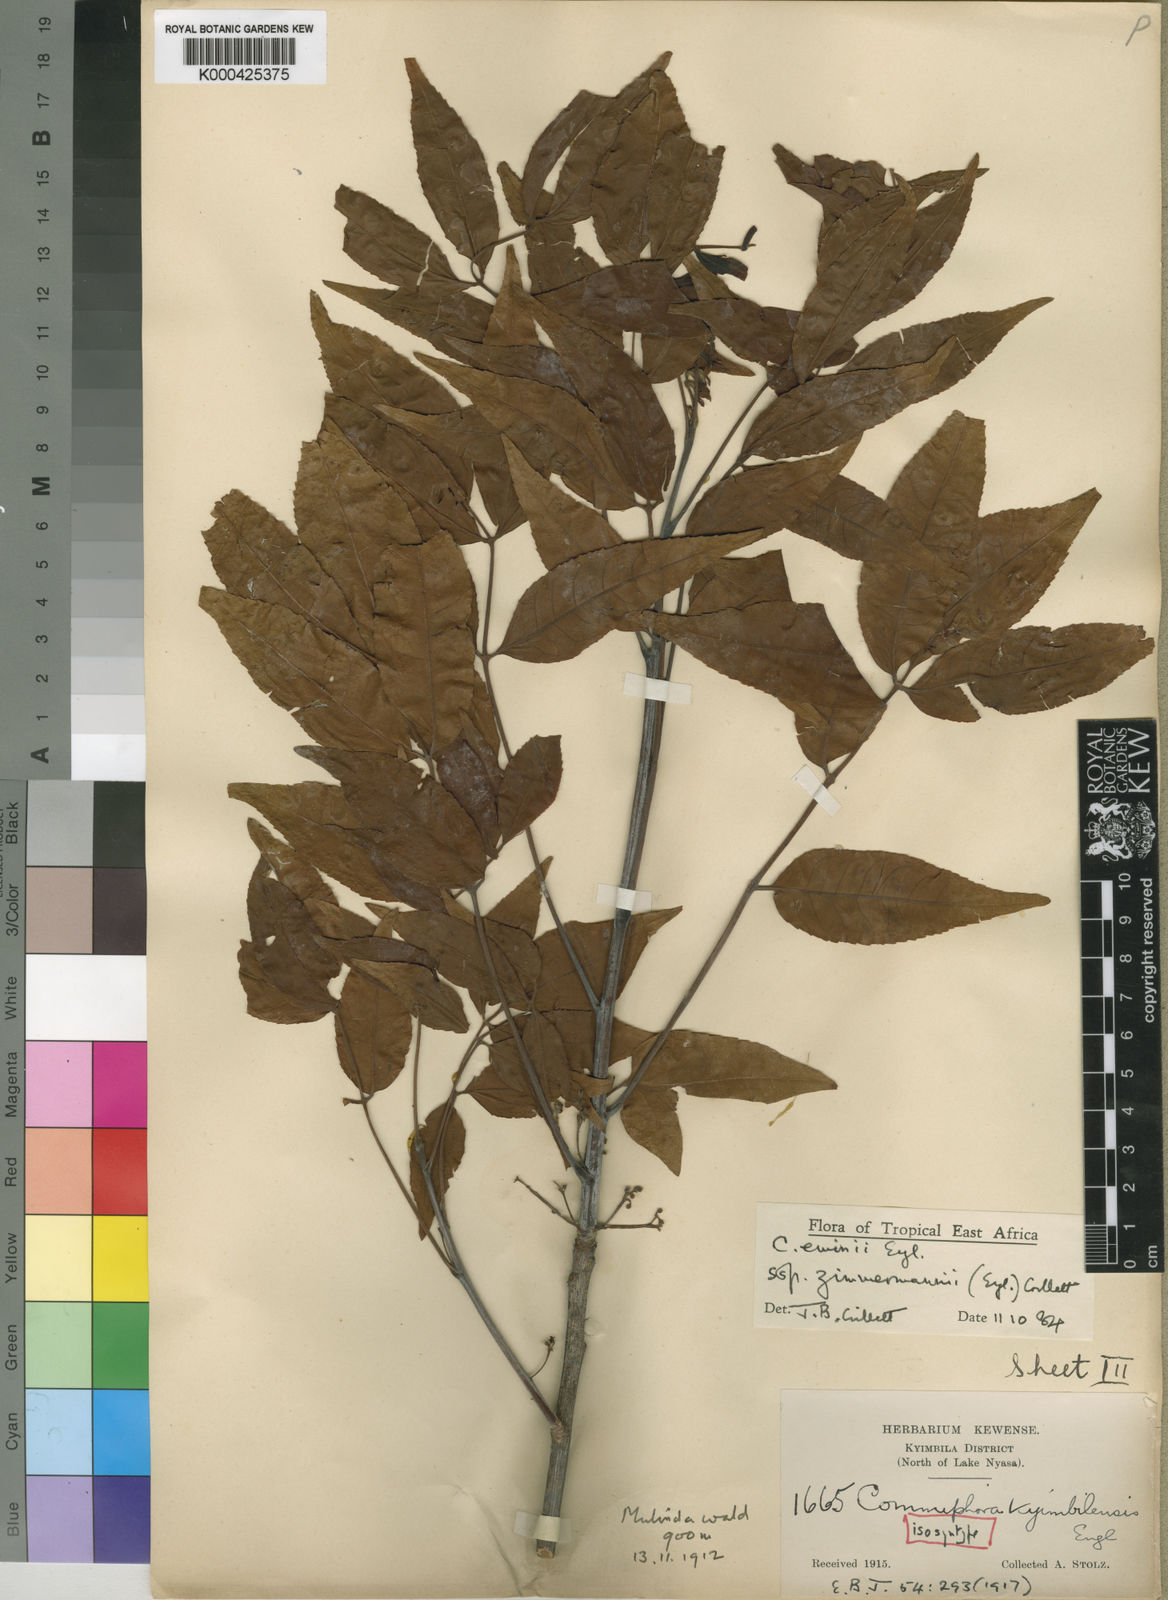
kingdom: Plantae
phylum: Tracheophyta
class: Magnoliopsida
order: Sapindales
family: Burseraceae
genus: Commiphora
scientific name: Commiphora eminii
